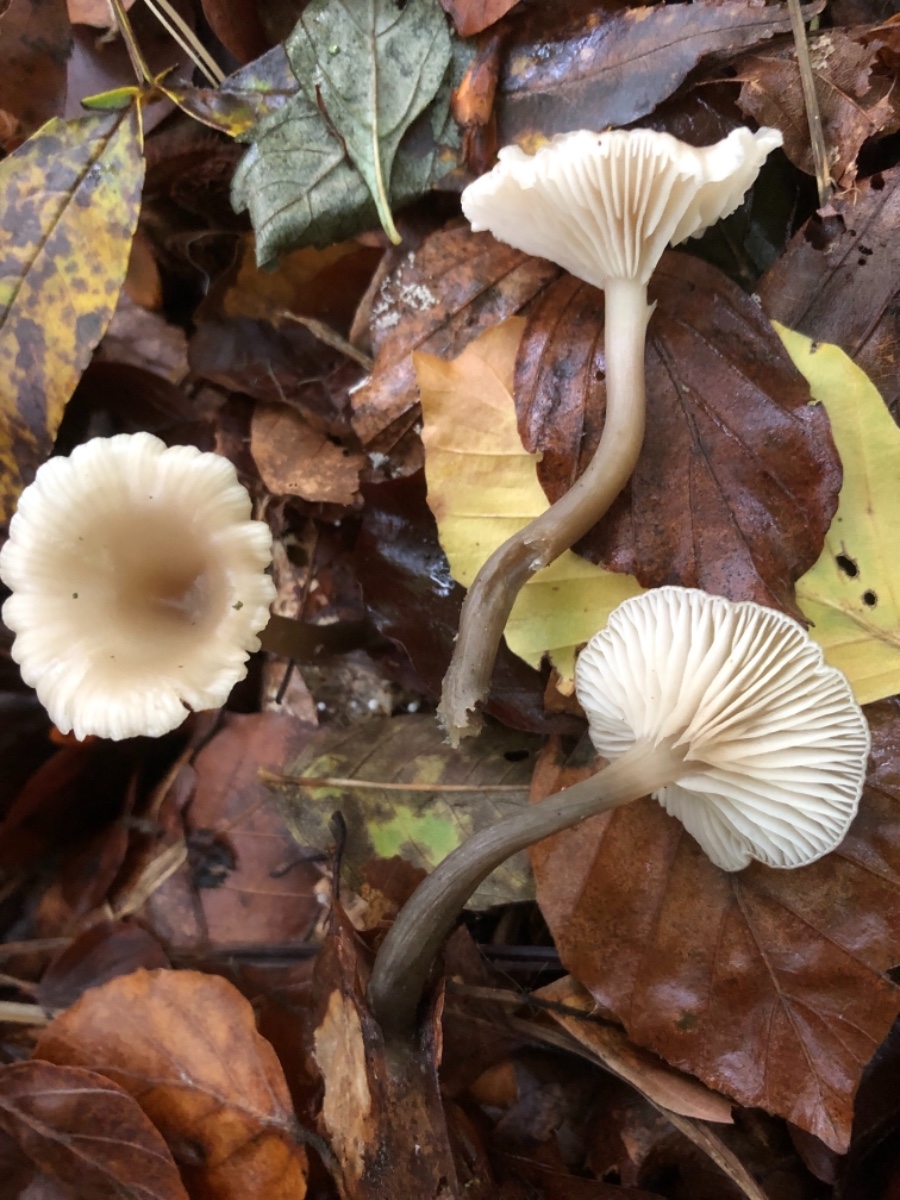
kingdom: Fungi
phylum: Basidiomycota
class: Agaricomycetes
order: Agaricales
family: Tricholomataceae
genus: Clitocybe
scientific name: Clitocybe
